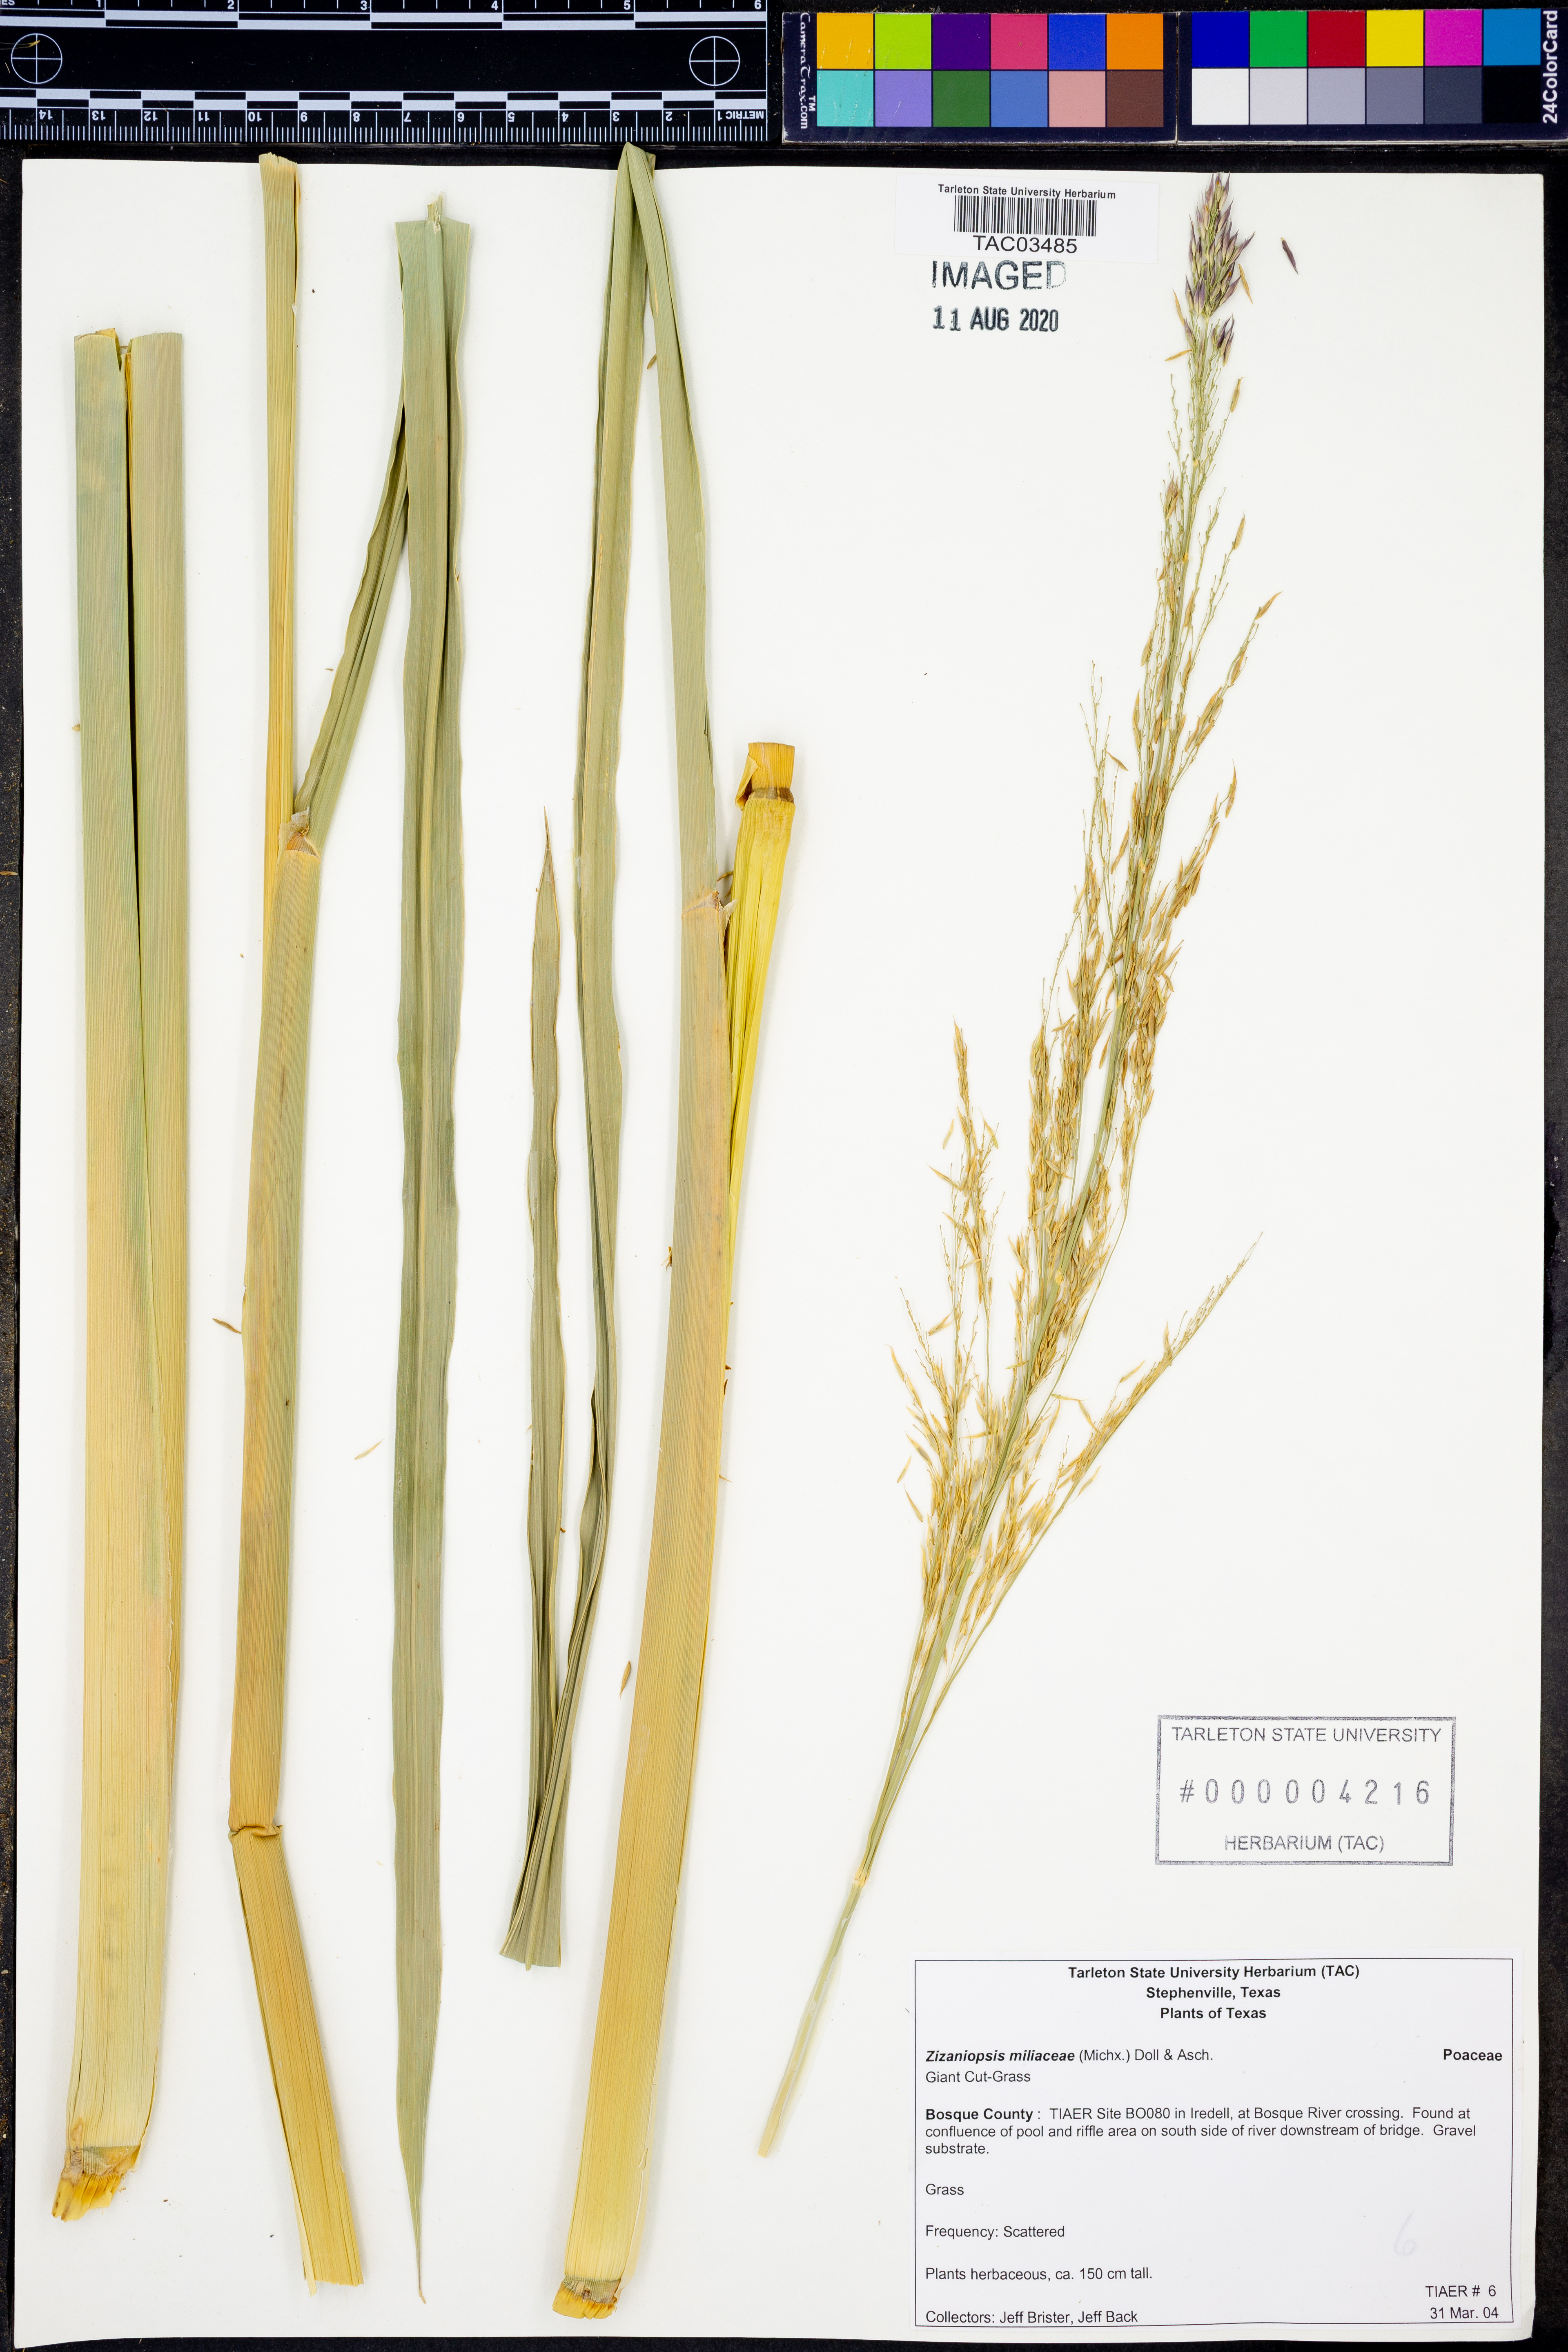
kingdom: Plantae
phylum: Tracheophyta
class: Liliopsida
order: Poales
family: Poaceae
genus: Zizaniopsis
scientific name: Zizaniopsis miliacea
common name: Giant-cutgrass
